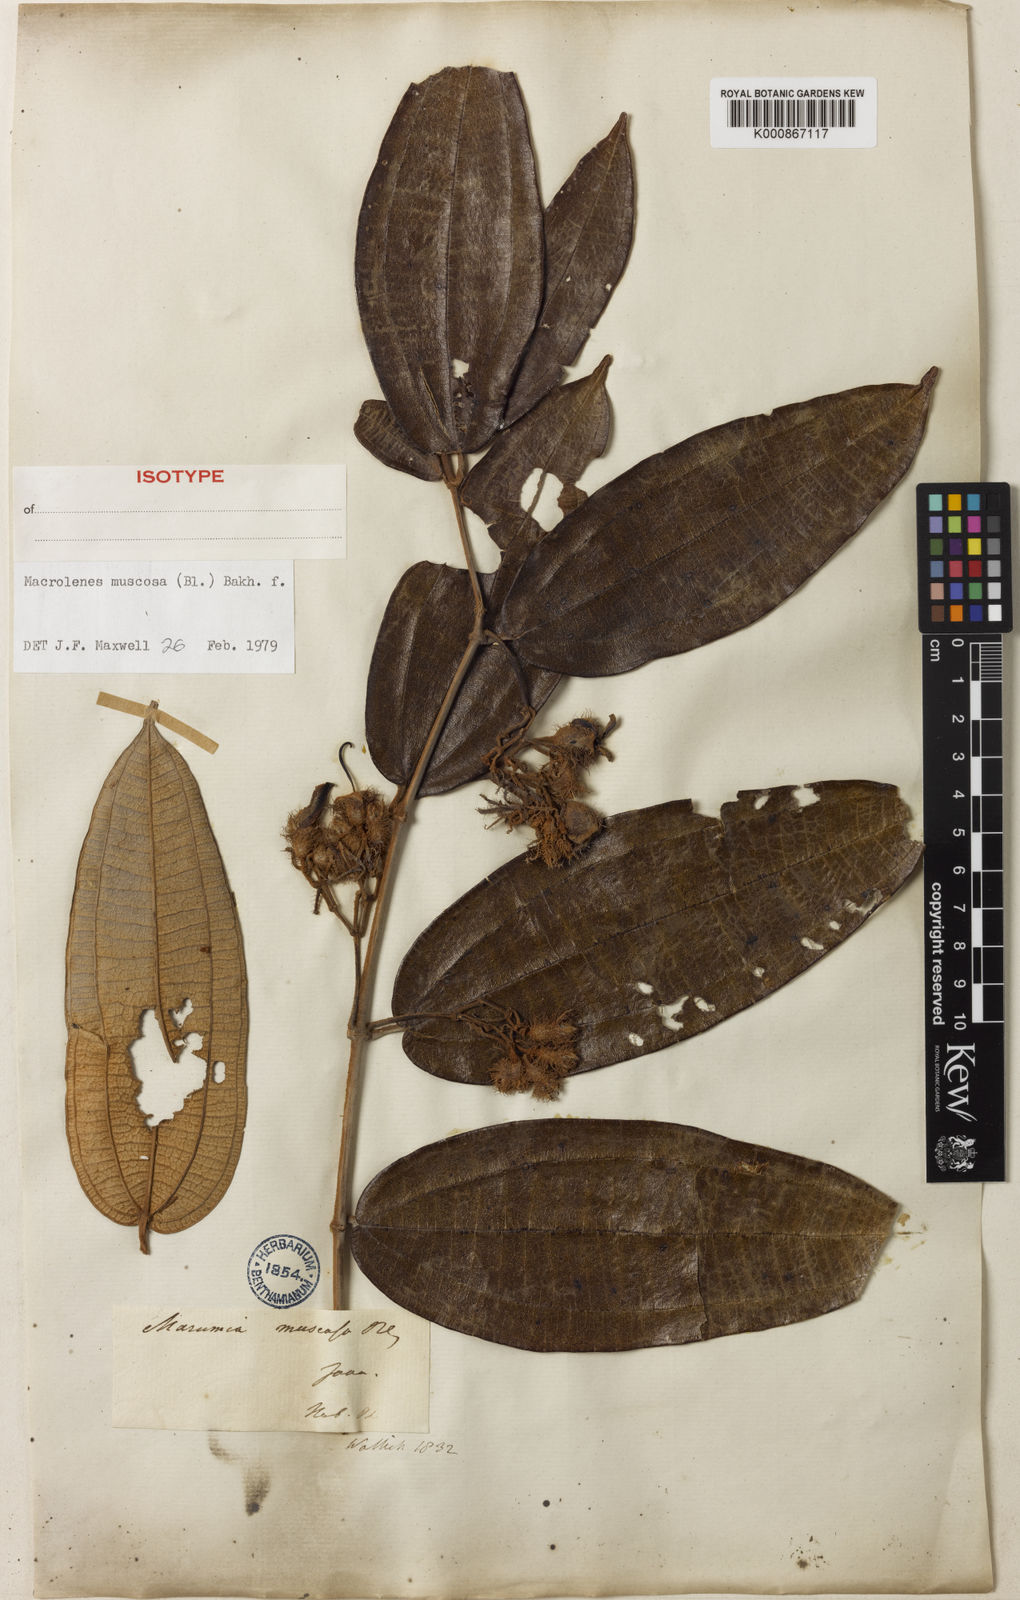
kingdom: Plantae
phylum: Tracheophyta
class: Magnoliopsida
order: Myrtales
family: Melastomataceae
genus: Macrolenes
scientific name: Macrolenes muscosa
